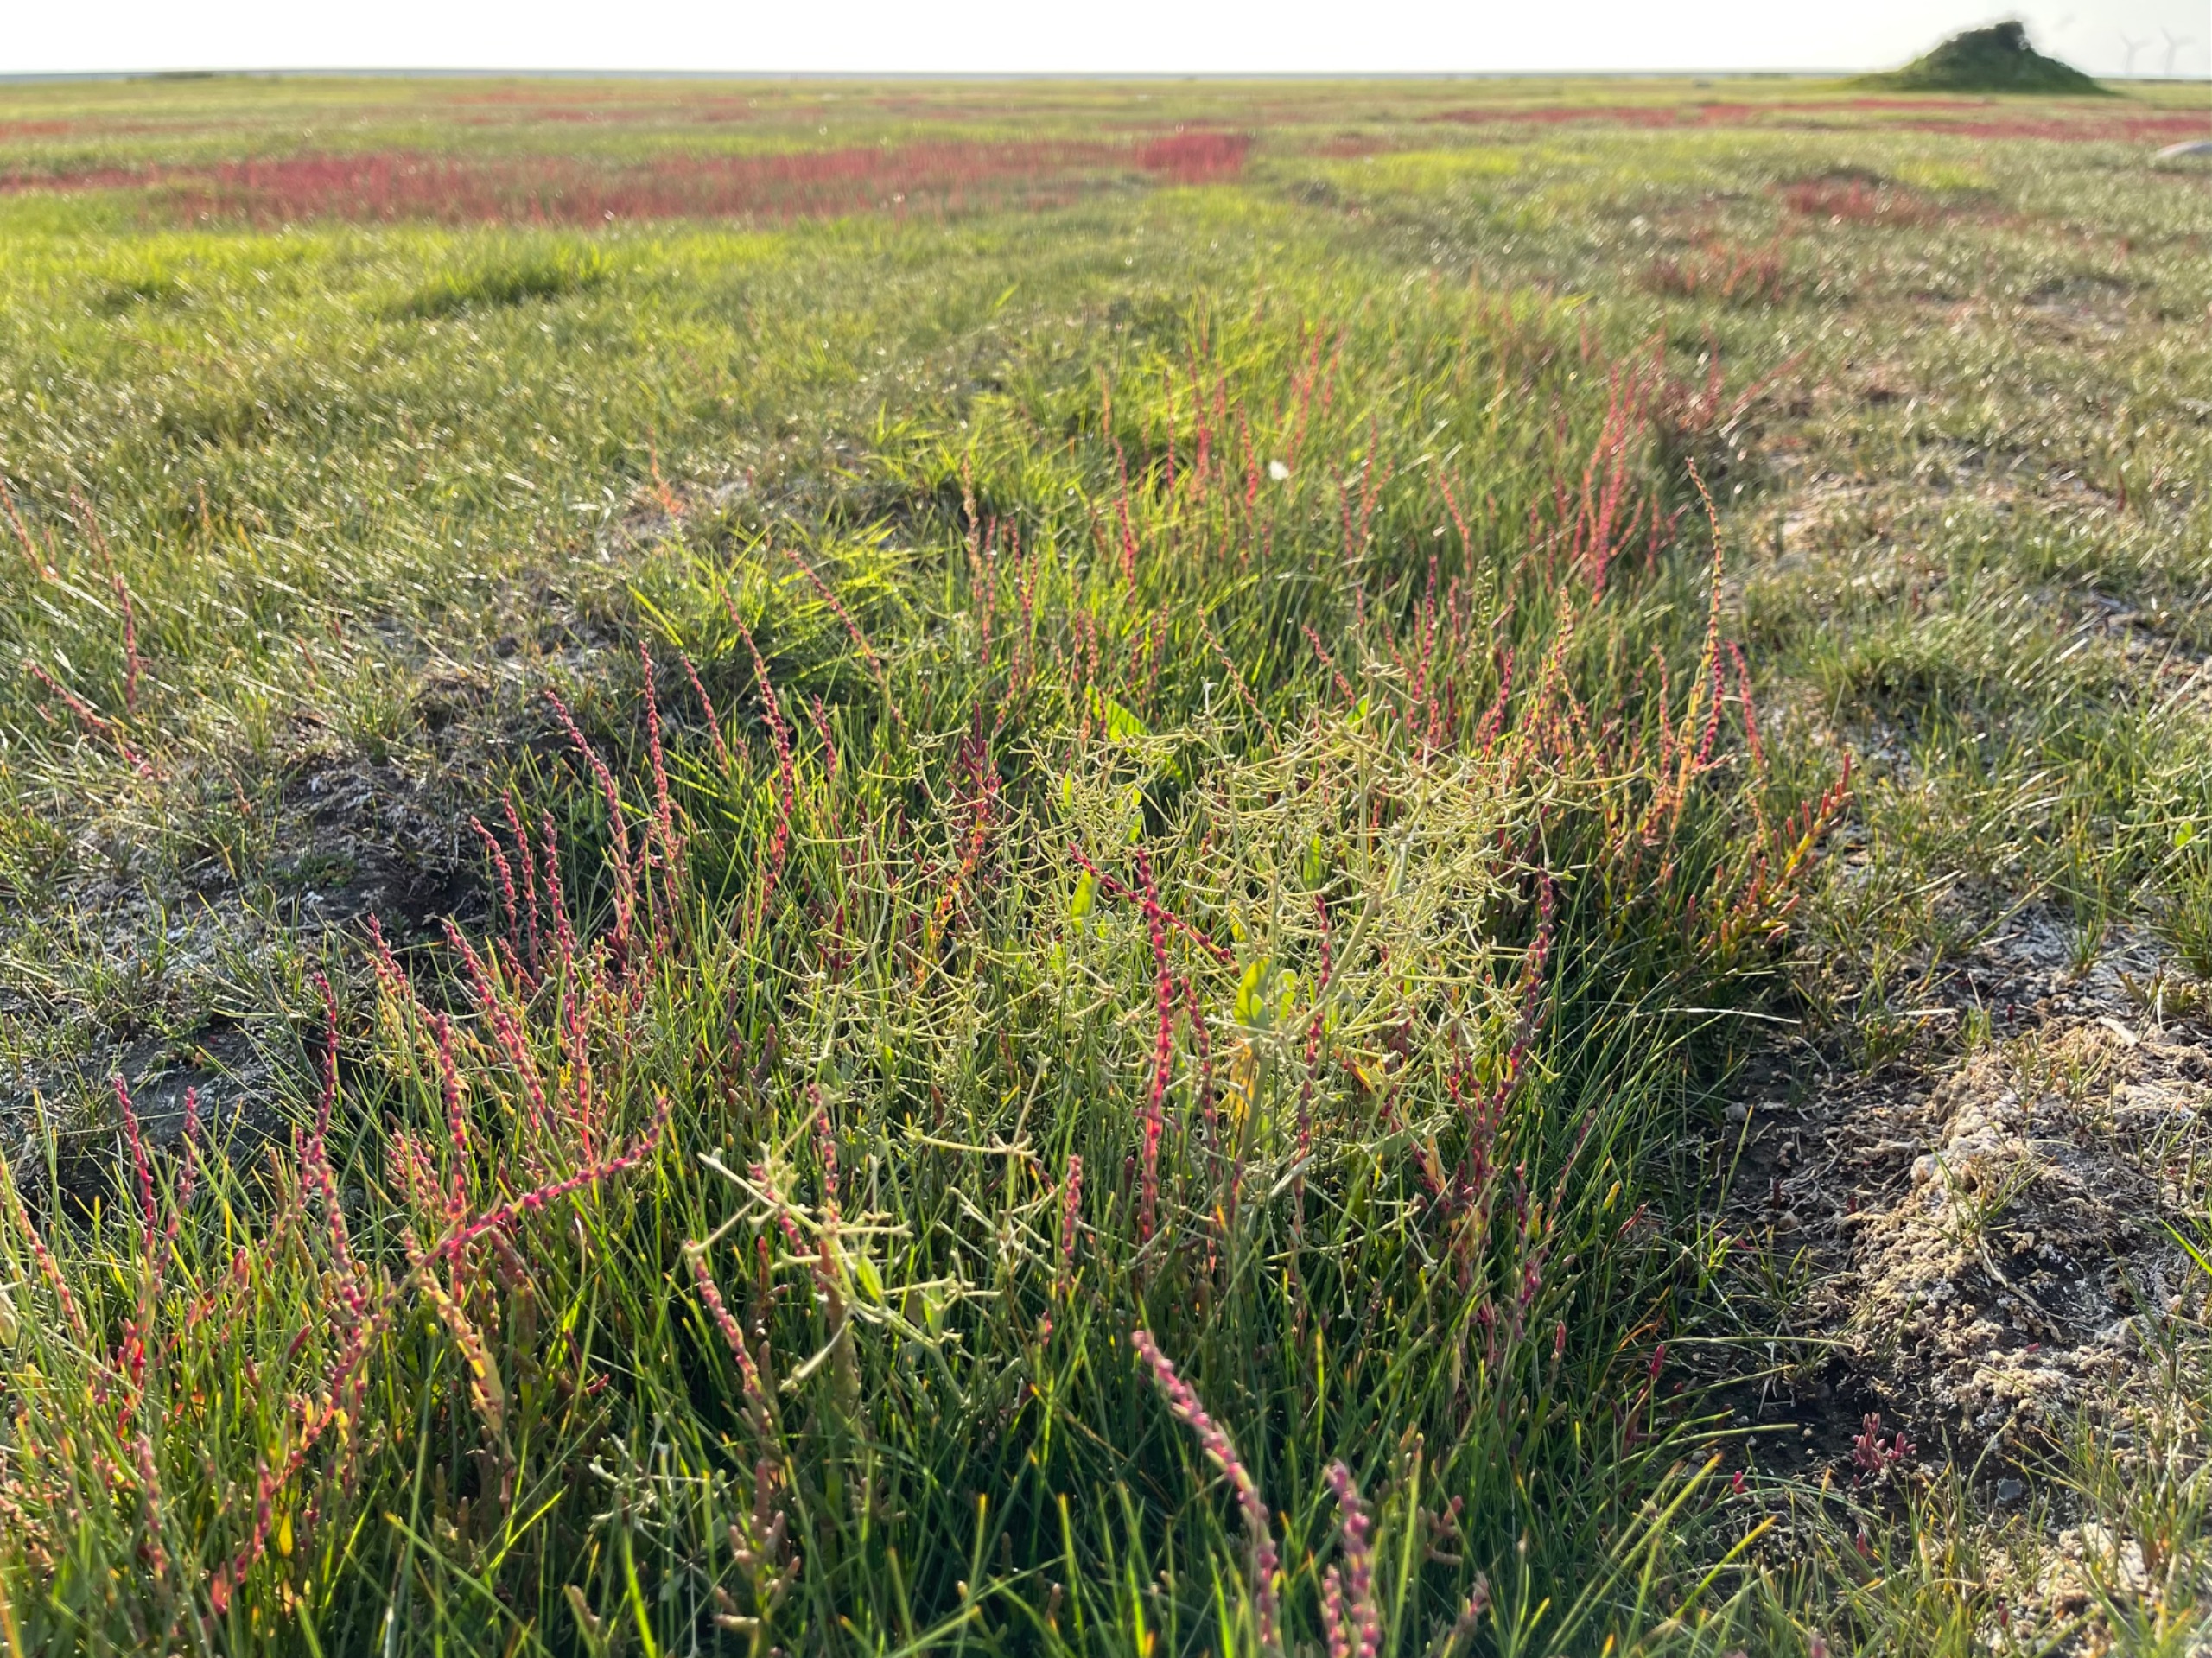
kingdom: Plantae
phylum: Tracheophyta
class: Magnoliopsida
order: Caryophyllales
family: Amaranthaceae
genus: Halimione
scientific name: Halimione pedunculata
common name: Stilket kilebæger
